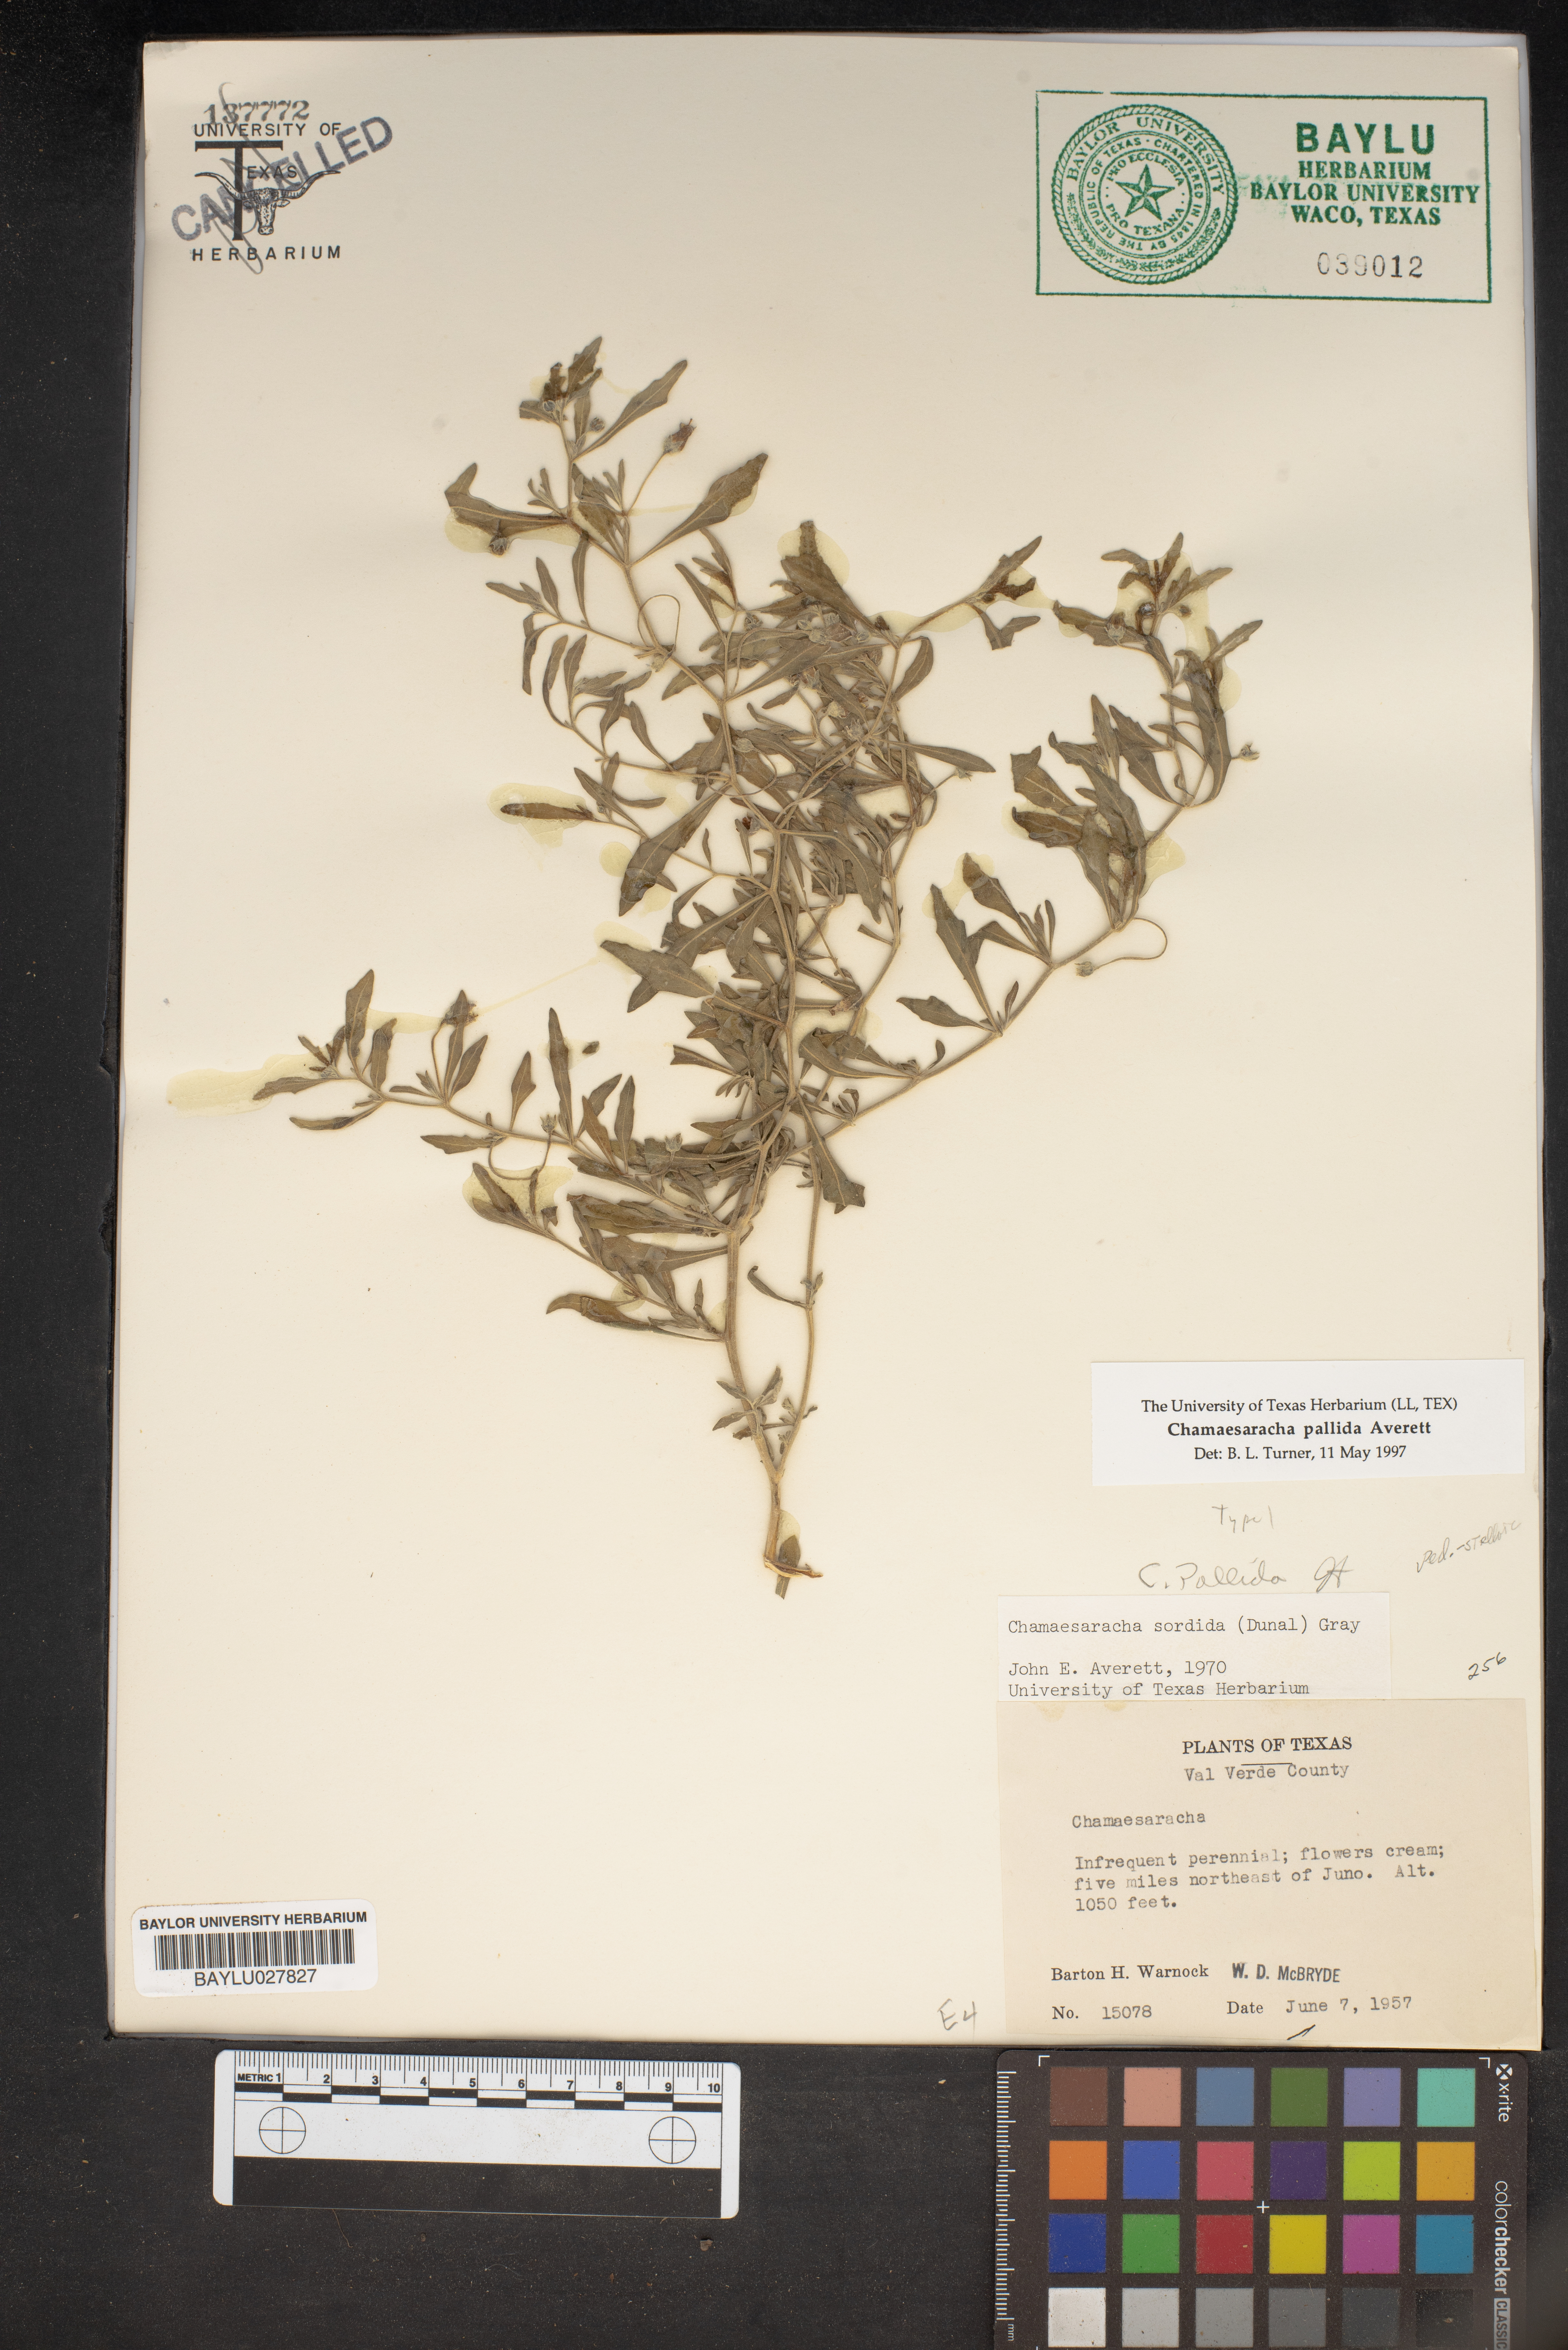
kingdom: Plantae
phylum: Tracheophyta
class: Magnoliopsida
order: Solanales
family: Solanaceae
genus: Chamaesaracha
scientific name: Chamaesaracha sordida
